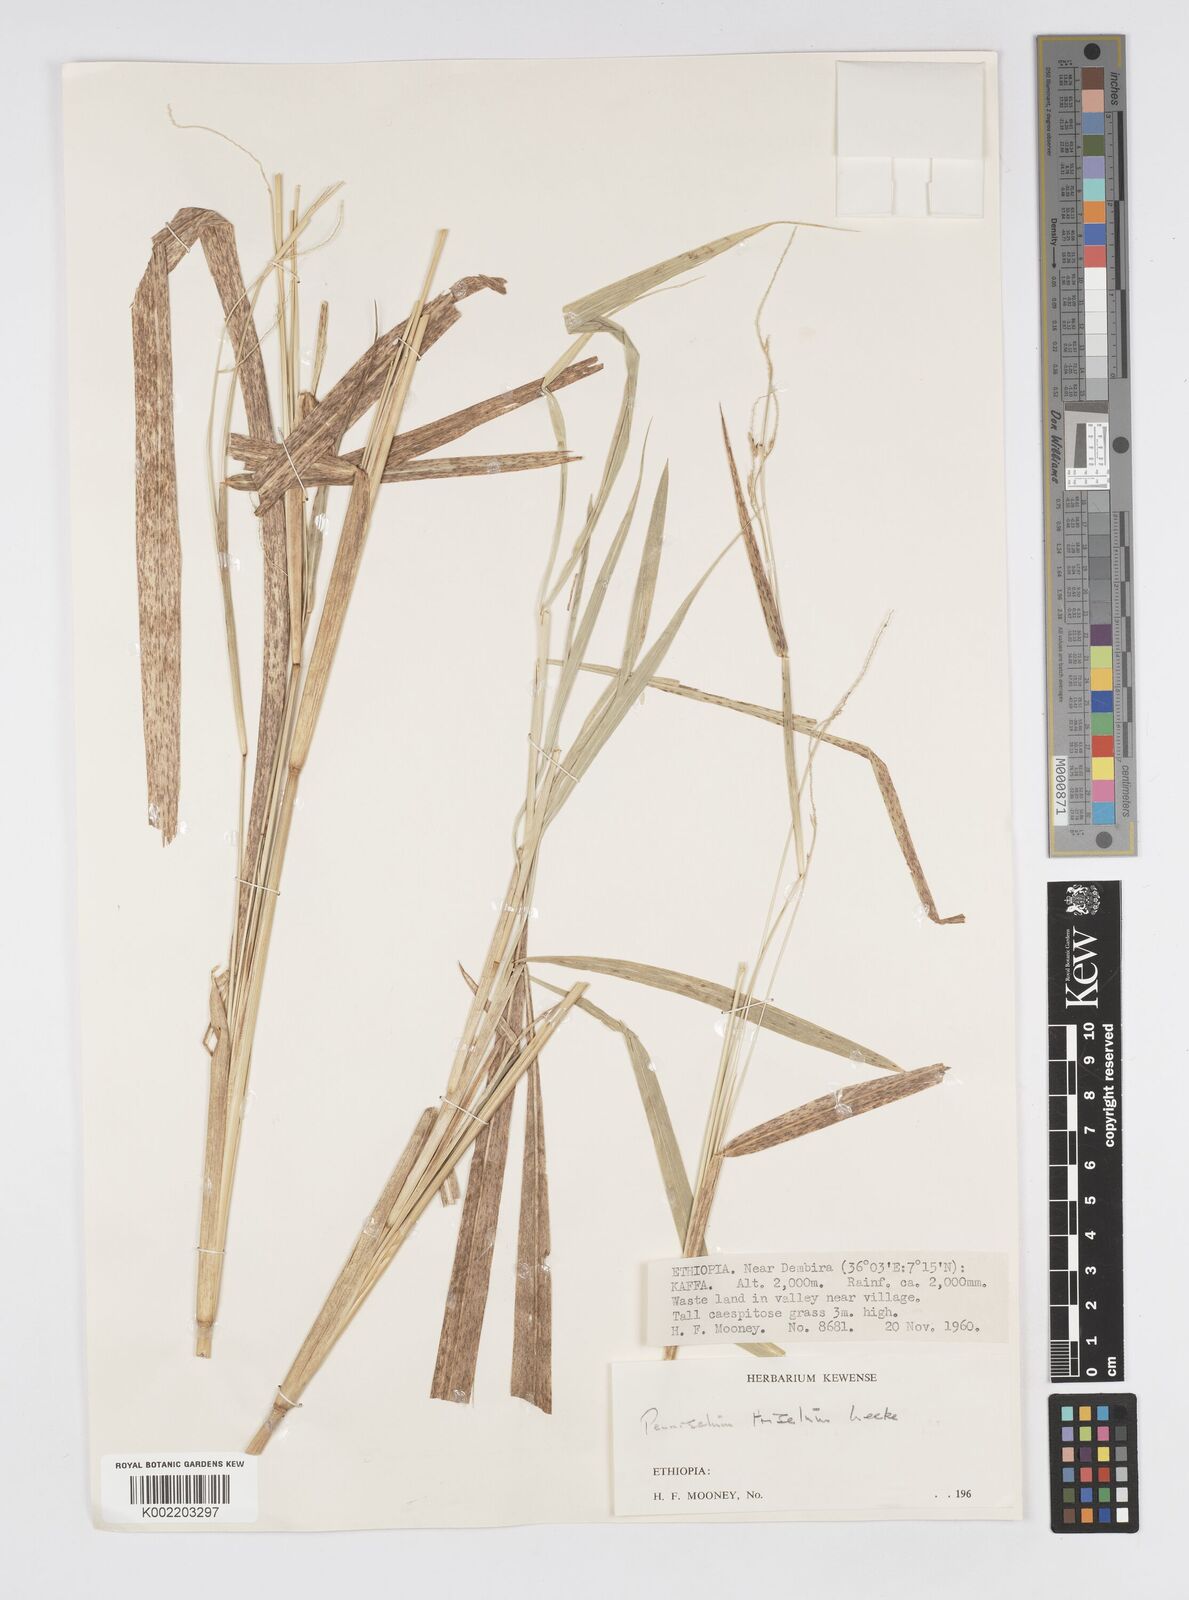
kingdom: Plantae
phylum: Tracheophyta
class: Liliopsida
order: Poales
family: Poaceae
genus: Cenchrus
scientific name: Cenchrus trisetus
